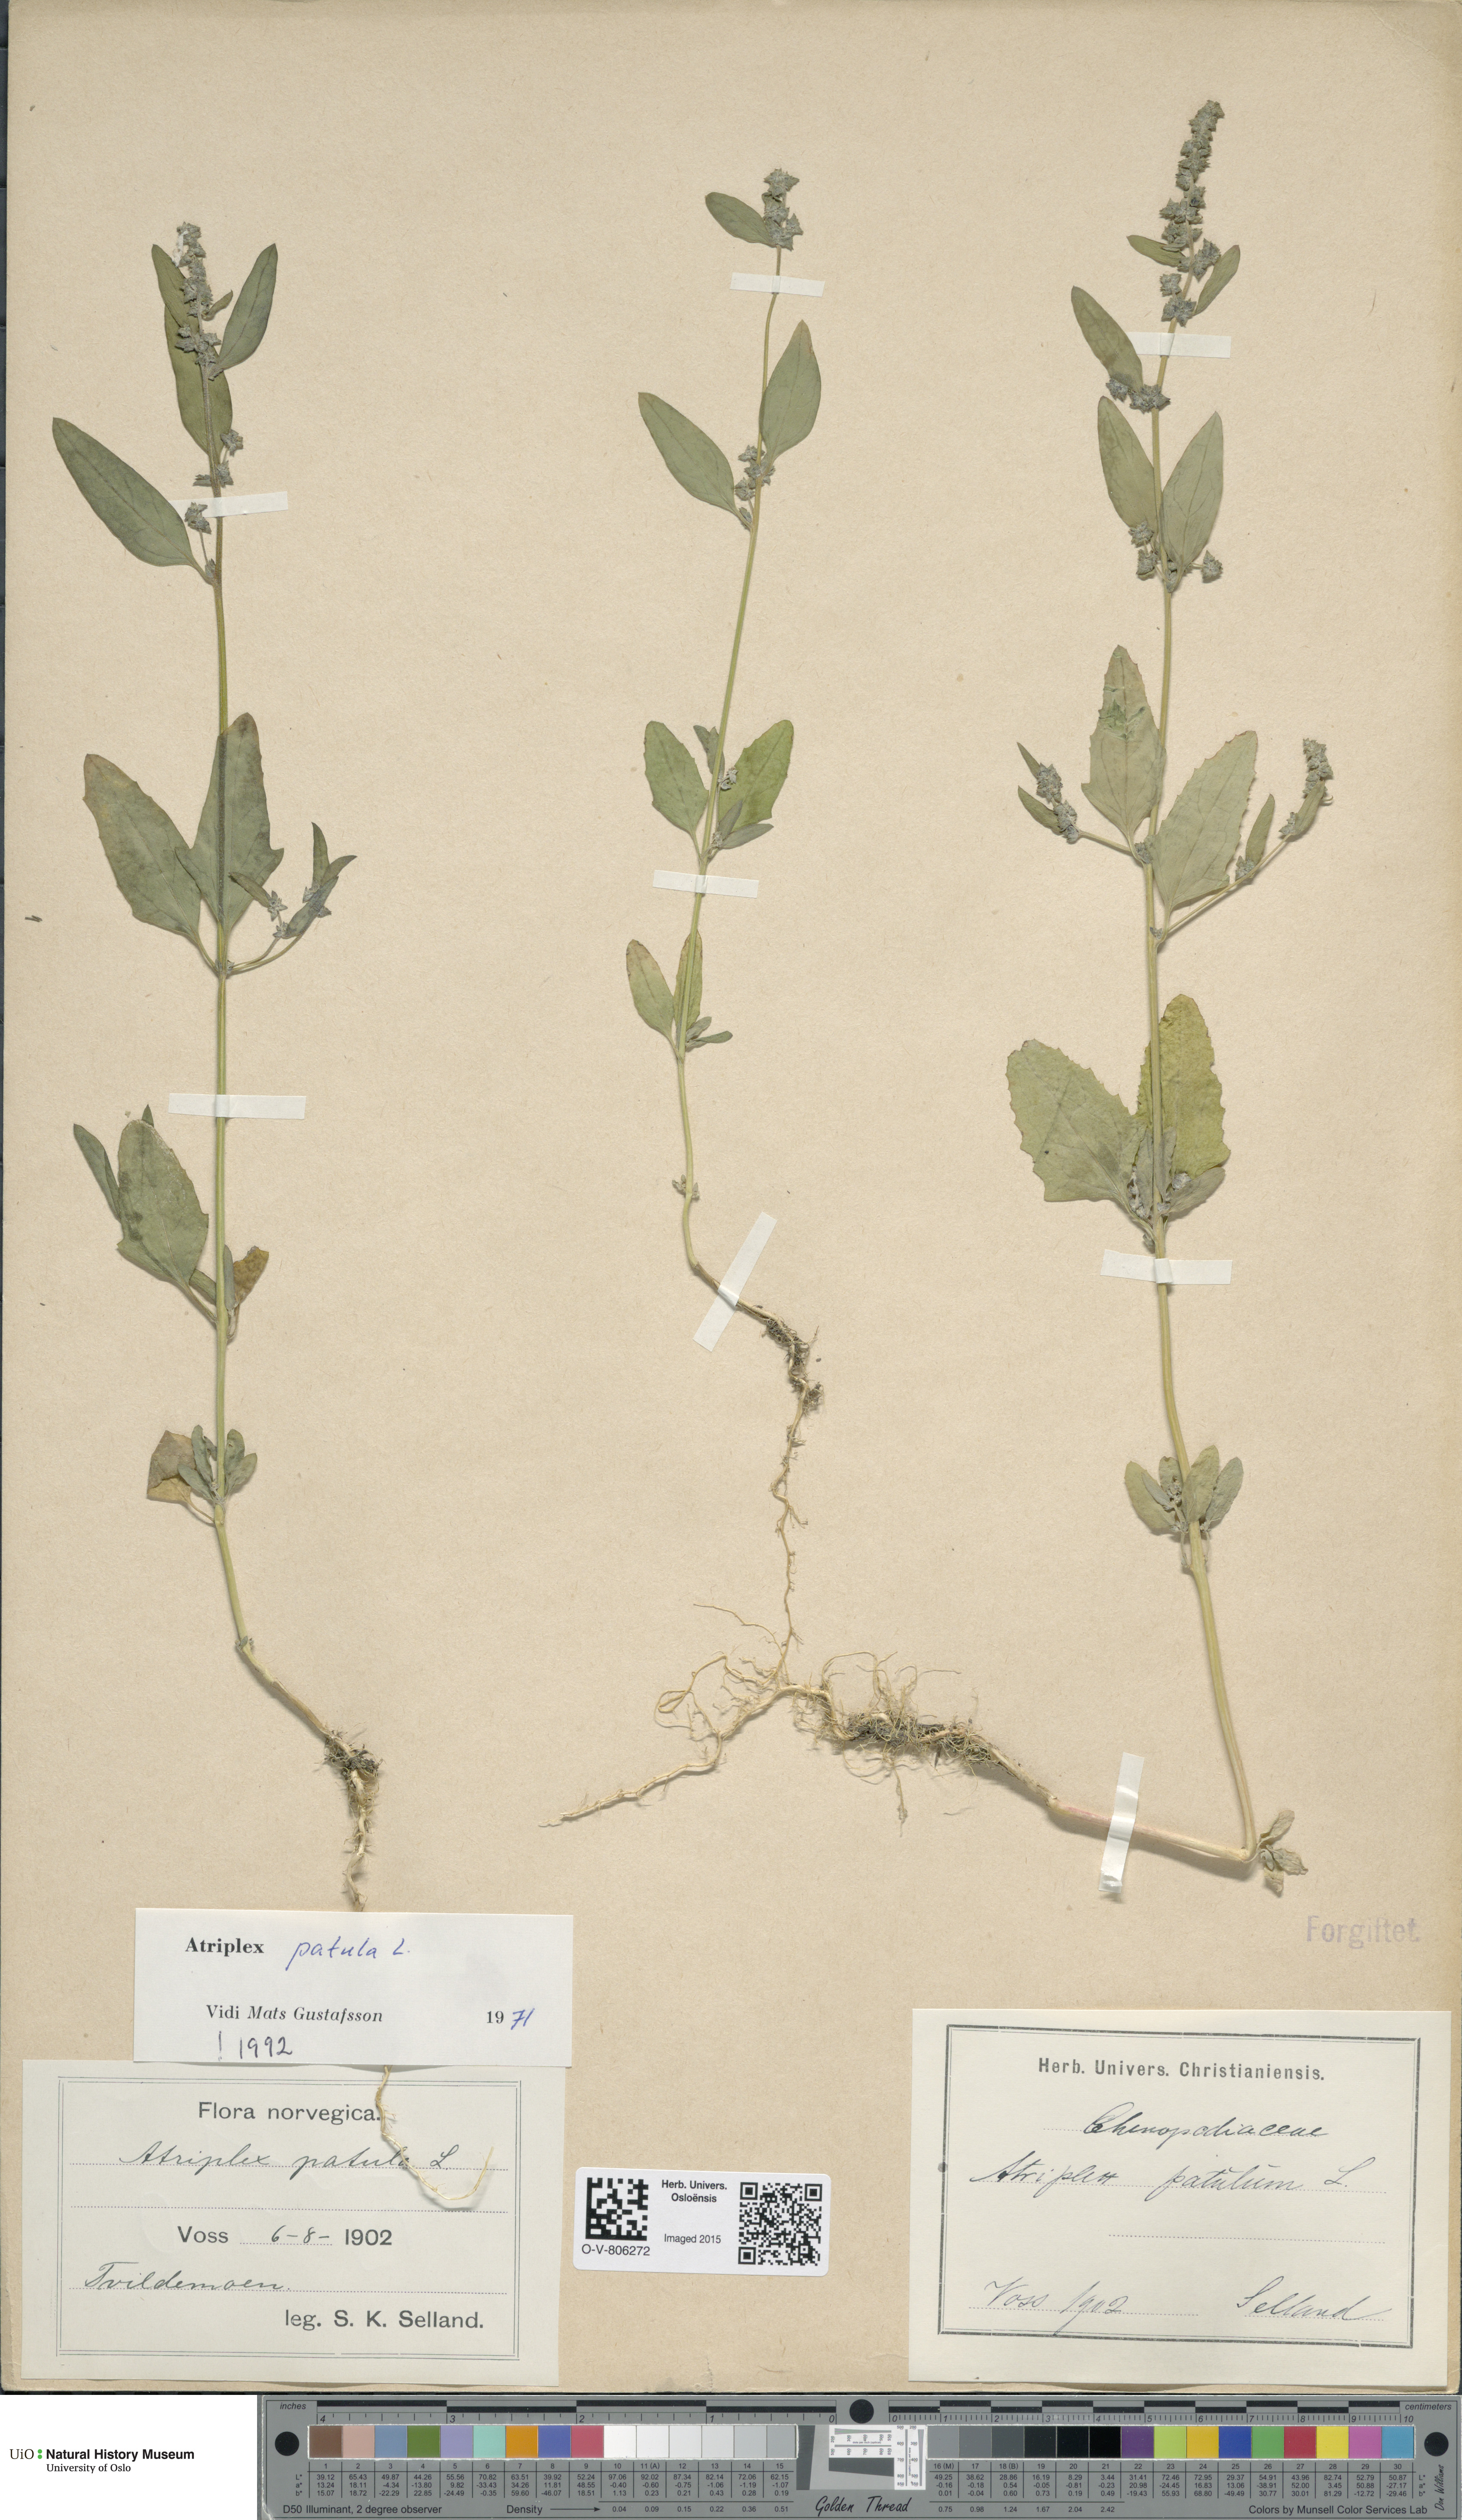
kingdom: Plantae
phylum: Tracheophyta
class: Magnoliopsida
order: Caryophyllales
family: Amaranthaceae
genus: Atriplex
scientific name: Atriplex patula
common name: Common orache
